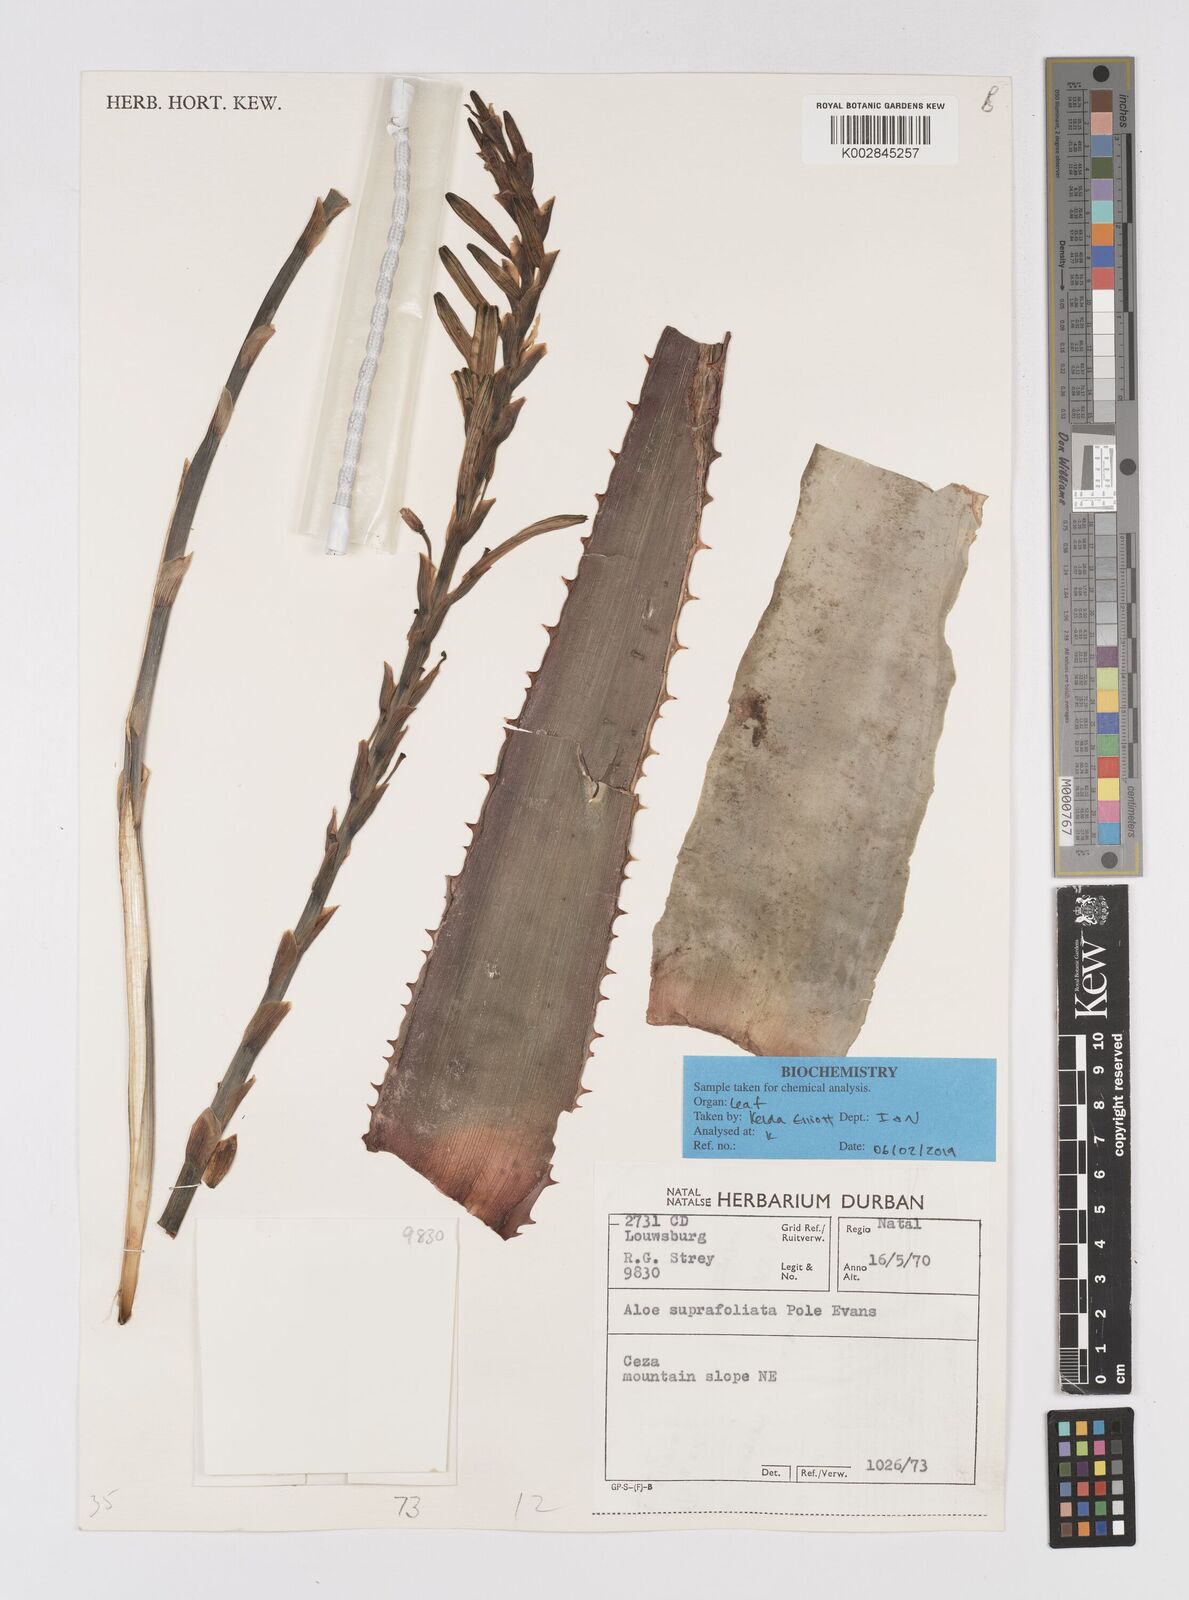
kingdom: Plantae
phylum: Tracheophyta
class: Liliopsida
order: Asparagales
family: Asphodelaceae
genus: Aloe
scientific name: Aloe suprafoliata
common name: Book aloe
